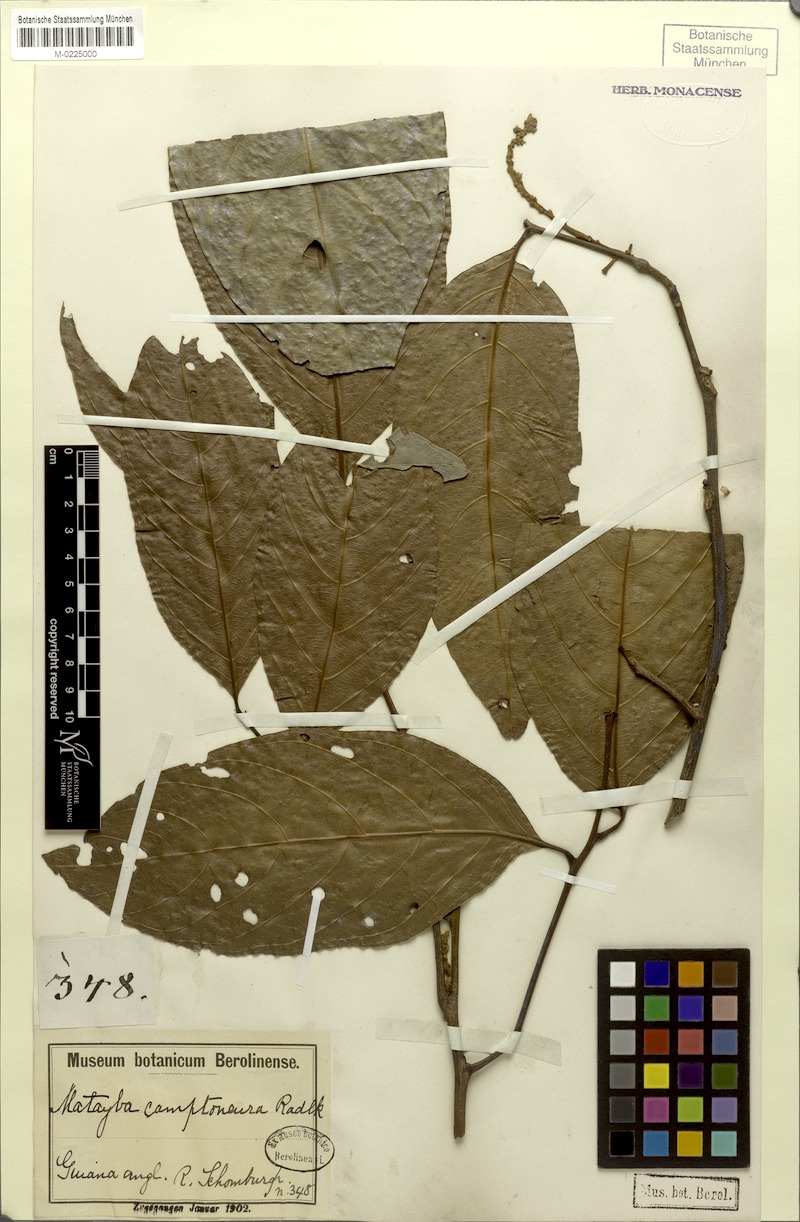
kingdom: Plantae
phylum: Tracheophyta
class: Magnoliopsida
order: Sapindales
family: Sapindaceae
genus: Matayba
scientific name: Matayba camptoneura
